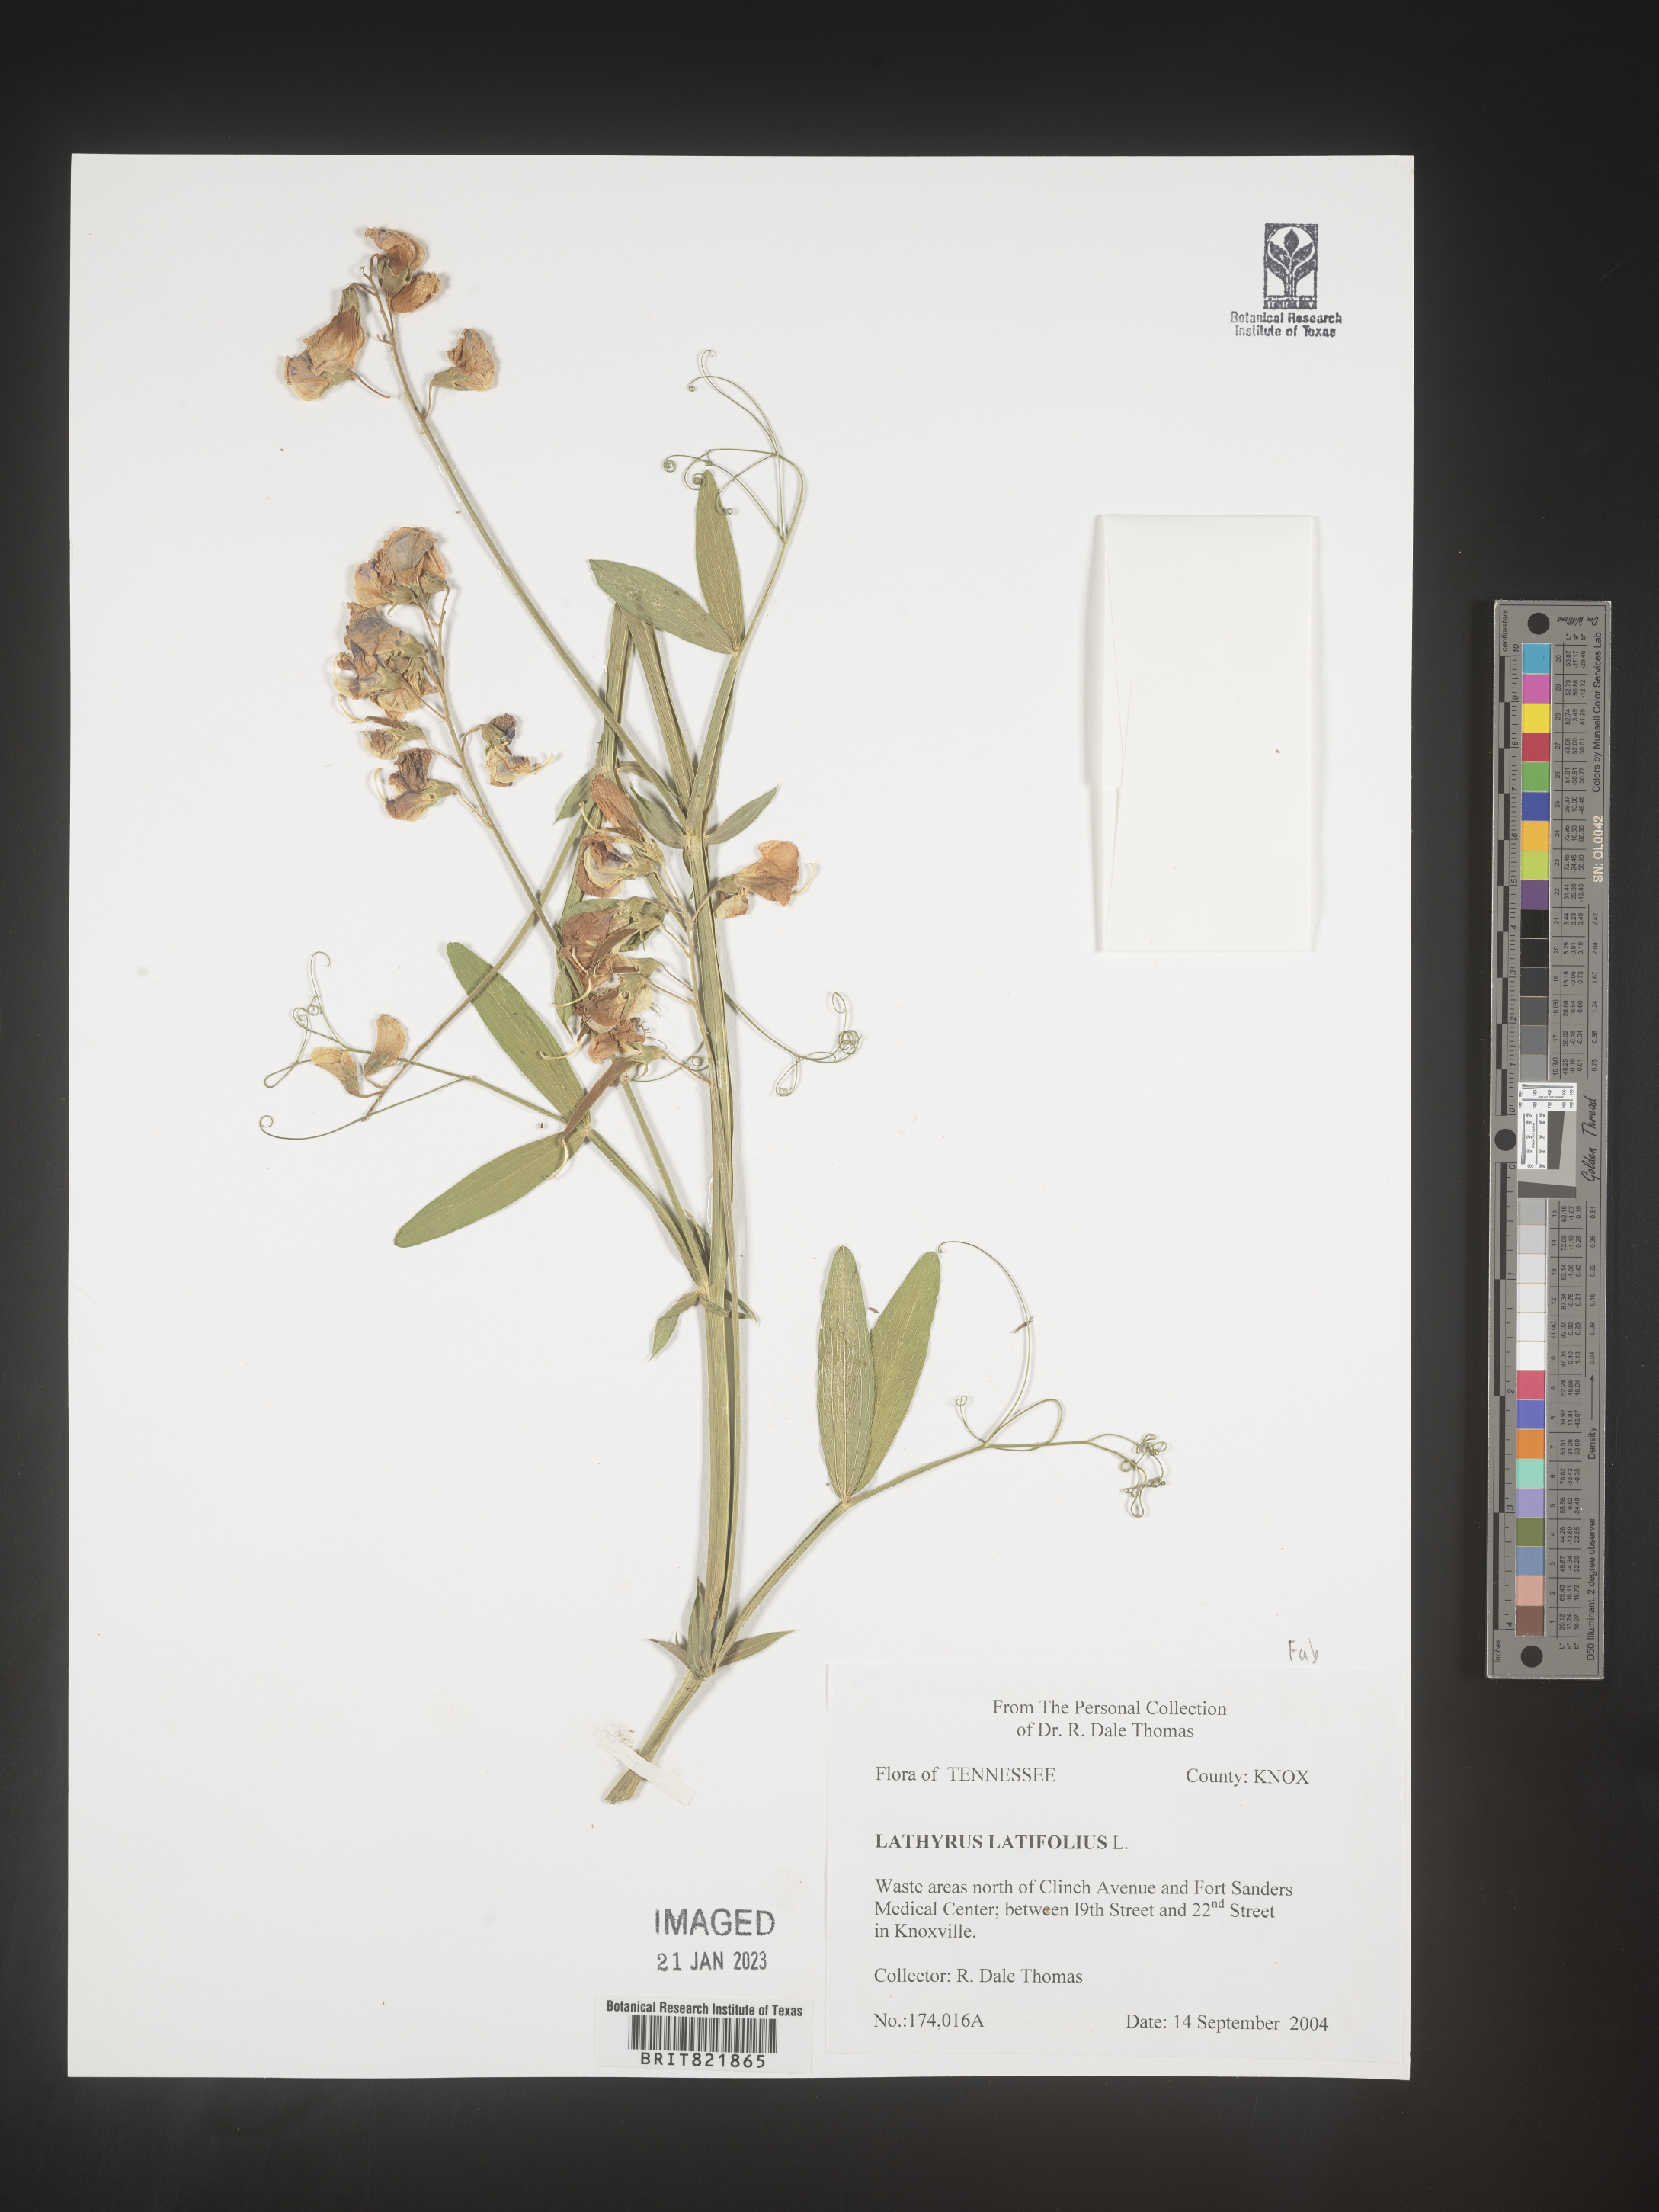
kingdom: Plantae
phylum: Tracheophyta
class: Magnoliopsida
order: Fabales
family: Fabaceae
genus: Lathyrus
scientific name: Lathyrus latifolius
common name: Perennial pea
